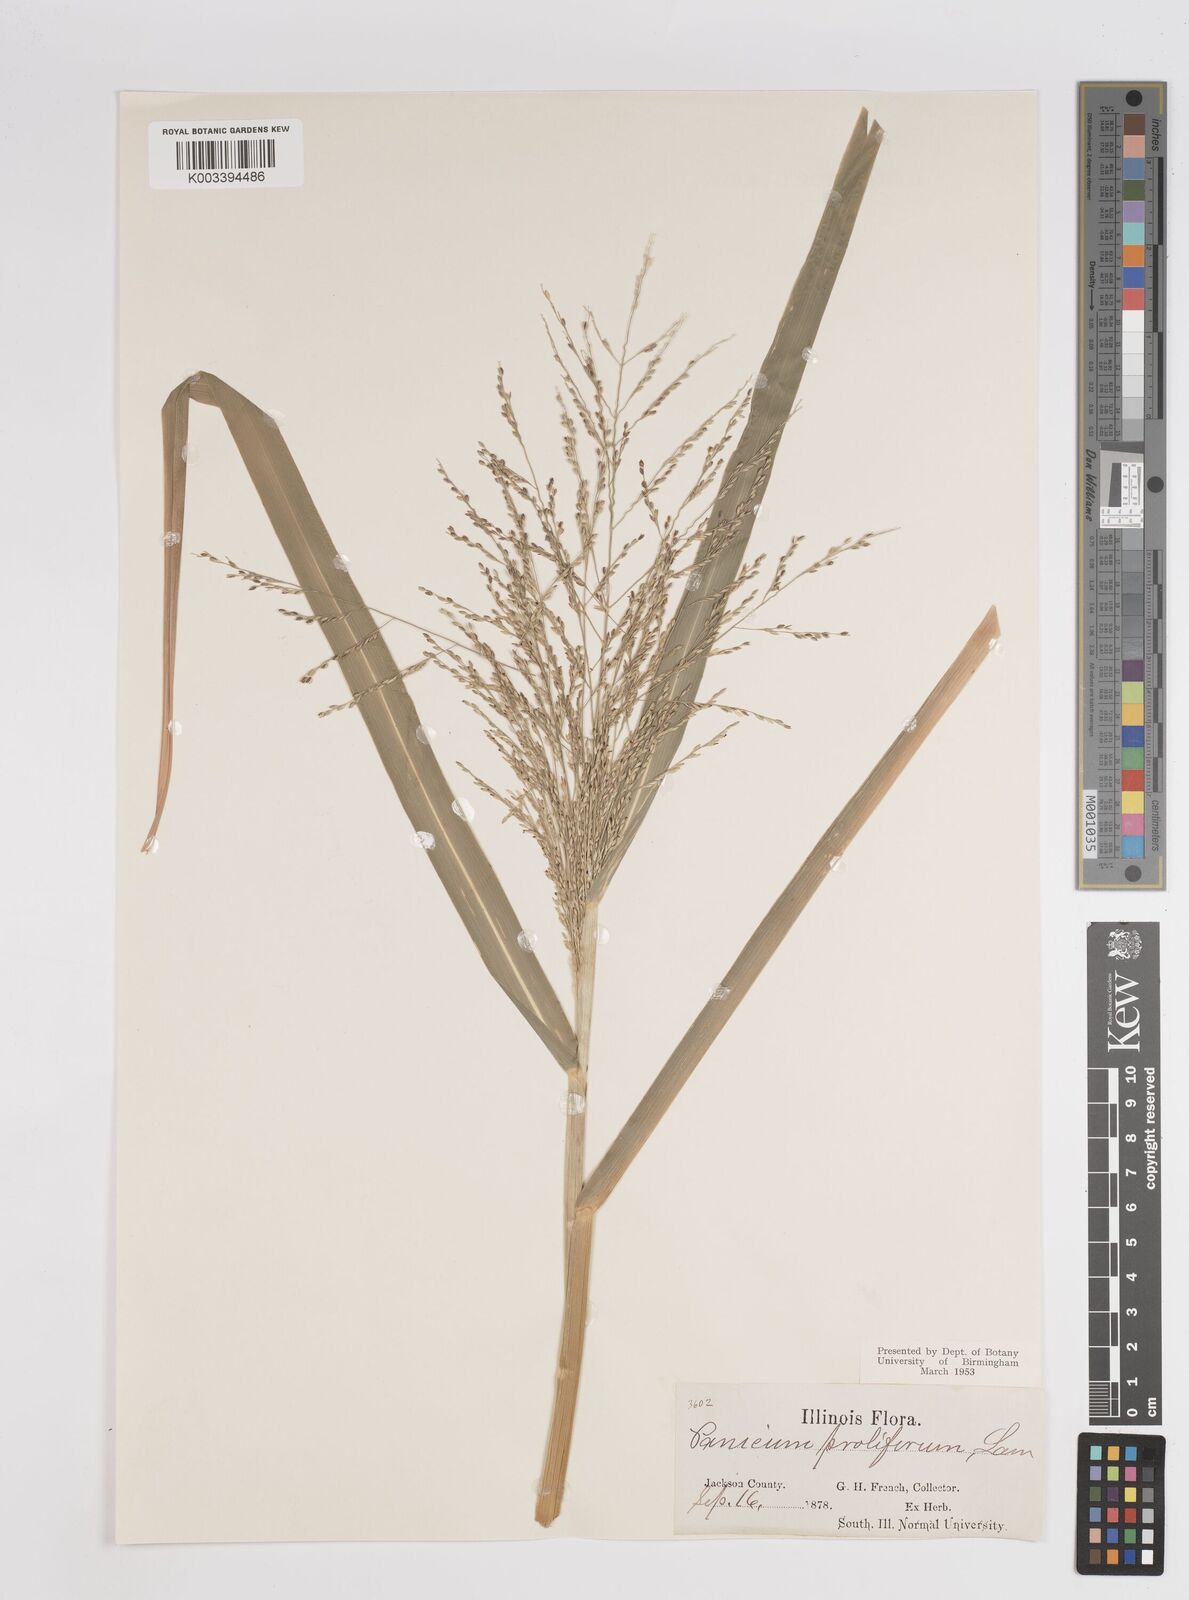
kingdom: Plantae
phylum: Tracheophyta
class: Liliopsida
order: Poales
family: Poaceae
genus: Panicum
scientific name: Panicum dichotomiflorum
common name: Autumn millet
